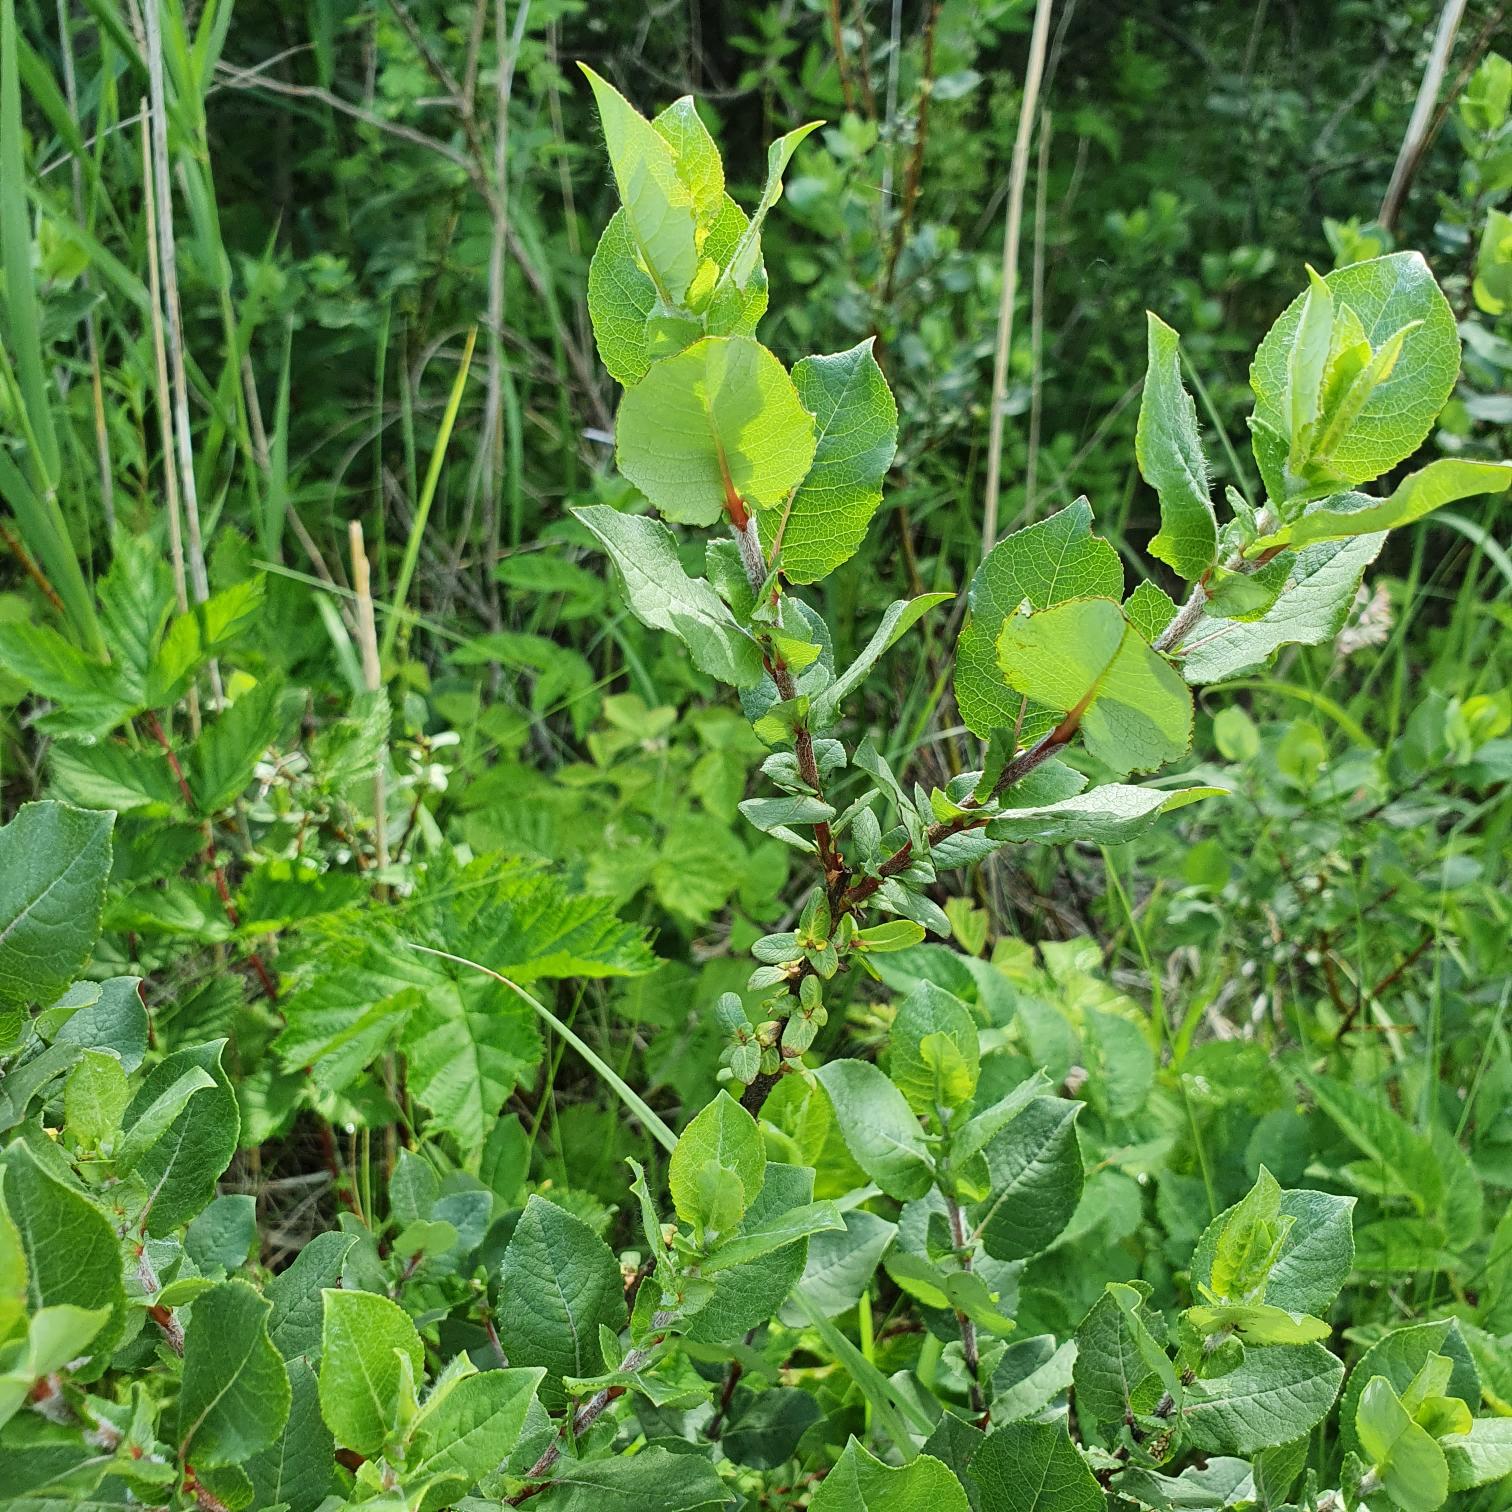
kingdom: Plantae
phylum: Tracheophyta
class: Magnoliopsida
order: Malpighiales
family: Salicaceae
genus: Salix
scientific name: Salix hastata
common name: Spyd-pil
